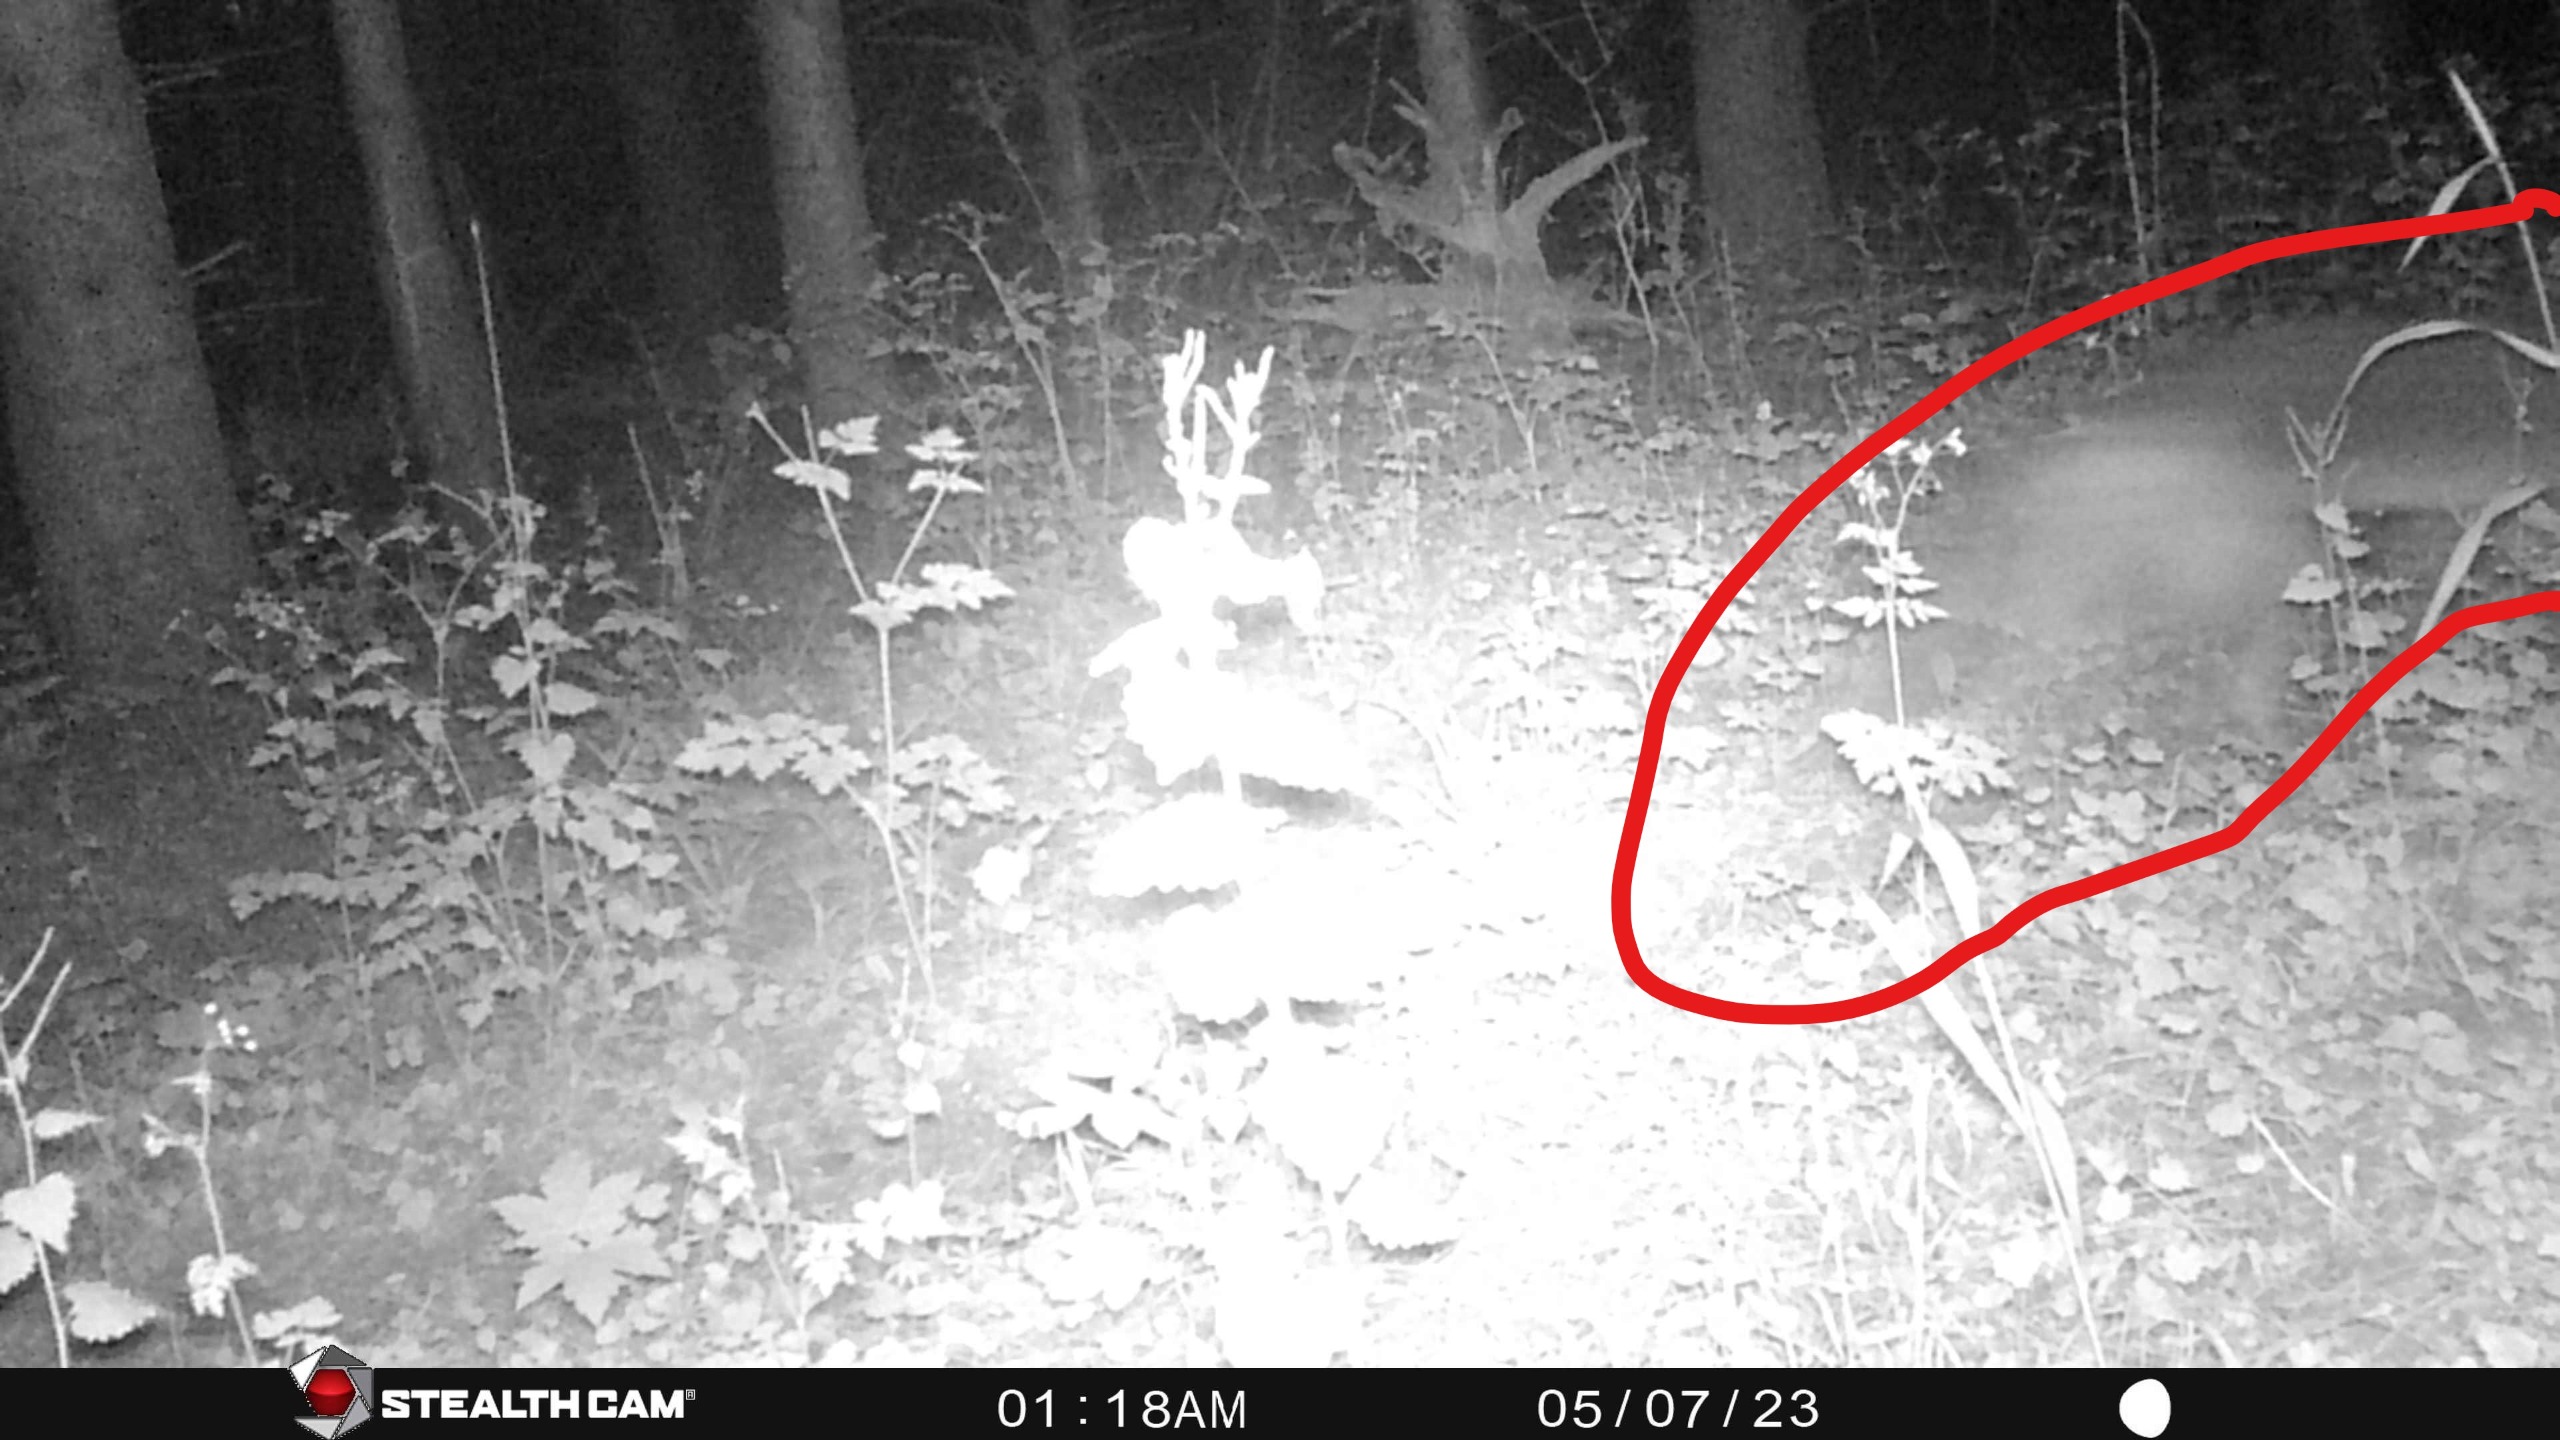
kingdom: Animalia
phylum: Chordata
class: Mammalia
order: Carnivora
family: Canidae
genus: Vulpes
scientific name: Vulpes vulpes
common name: Ræv
